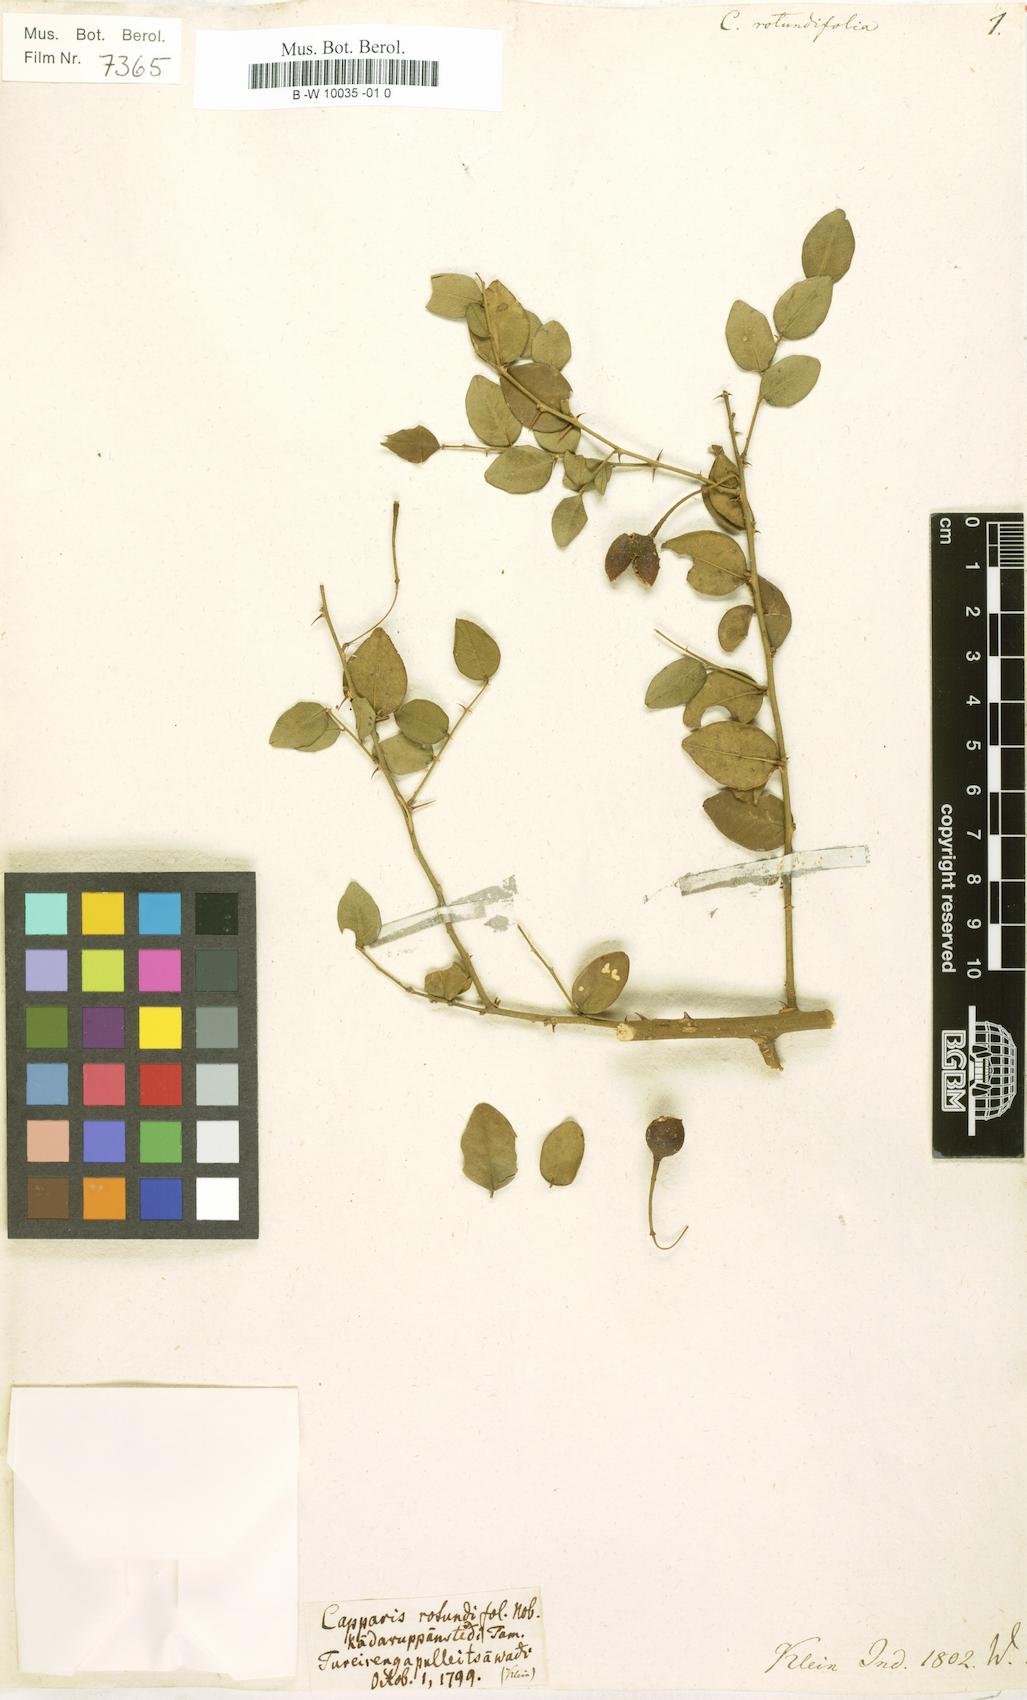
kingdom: Plantae
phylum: Tracheophyta
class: Magnoliopsida
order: Brassicales
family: Capparaceae
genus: Capparis
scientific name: Capparis rotundifolia
